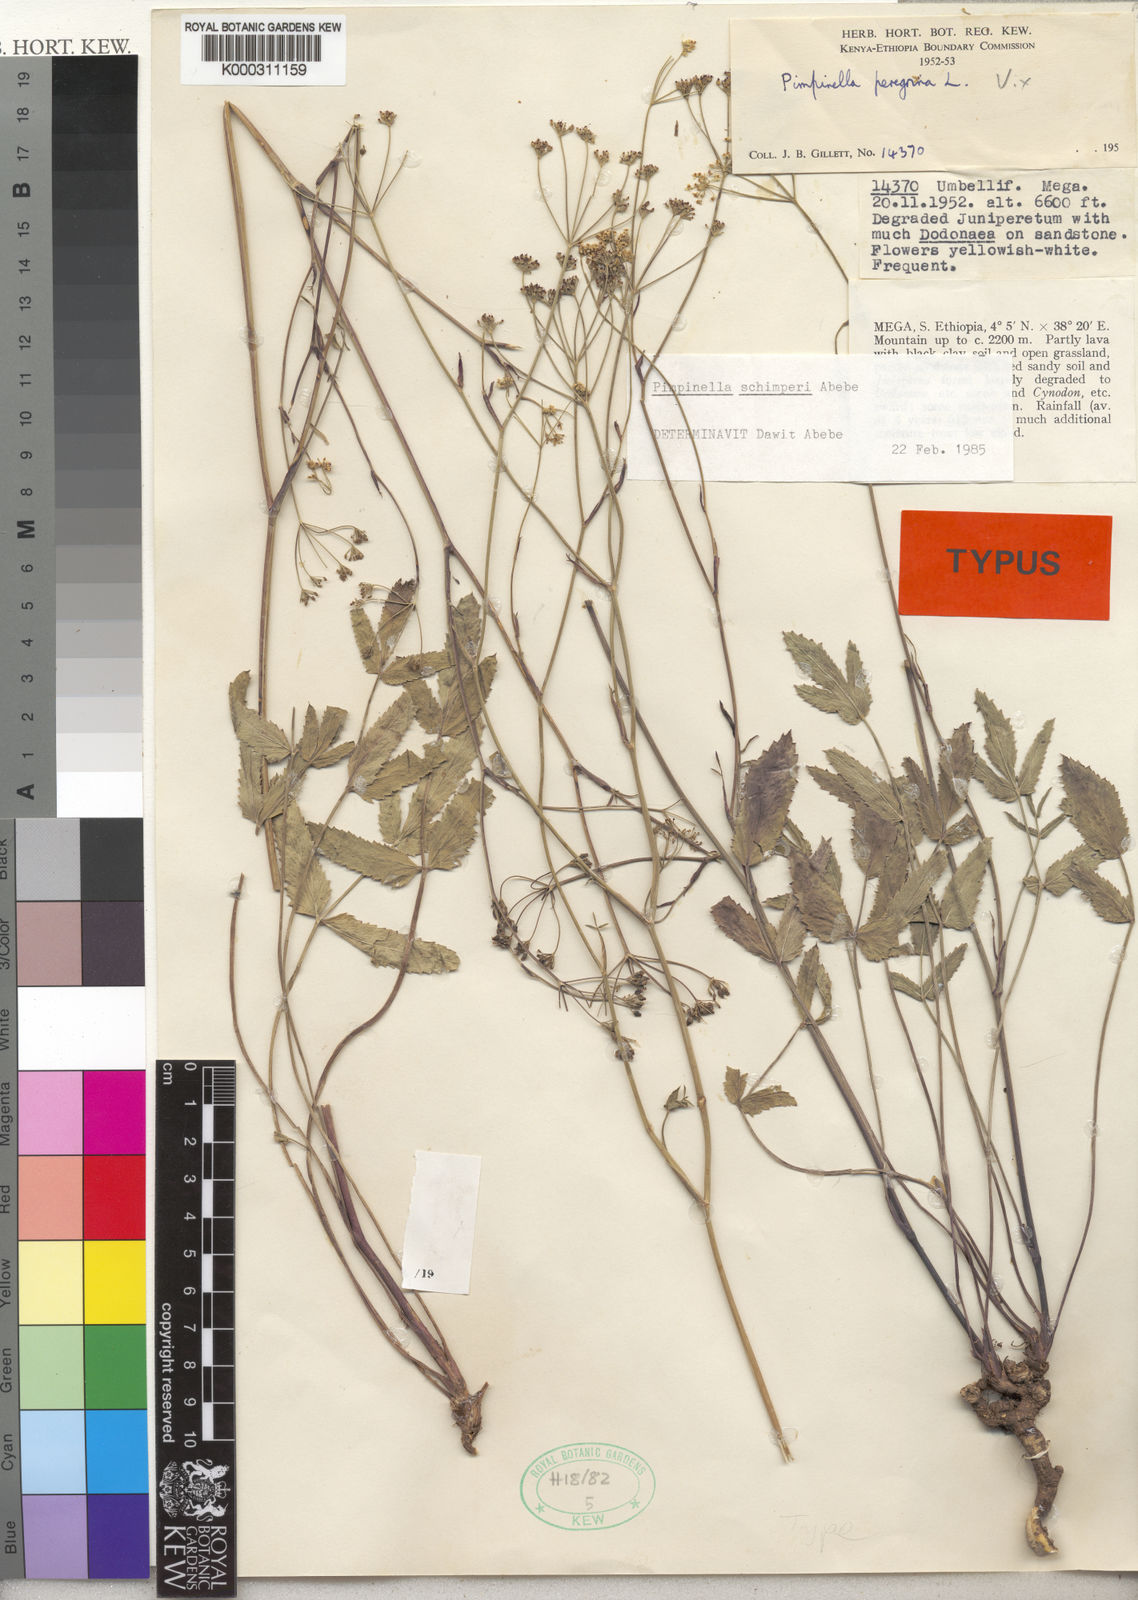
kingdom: Plantae
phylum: Tracheophyta
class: Magnoliopsida
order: Apiales
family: Apiaceae
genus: Pimpinella
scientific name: Pimpinella
